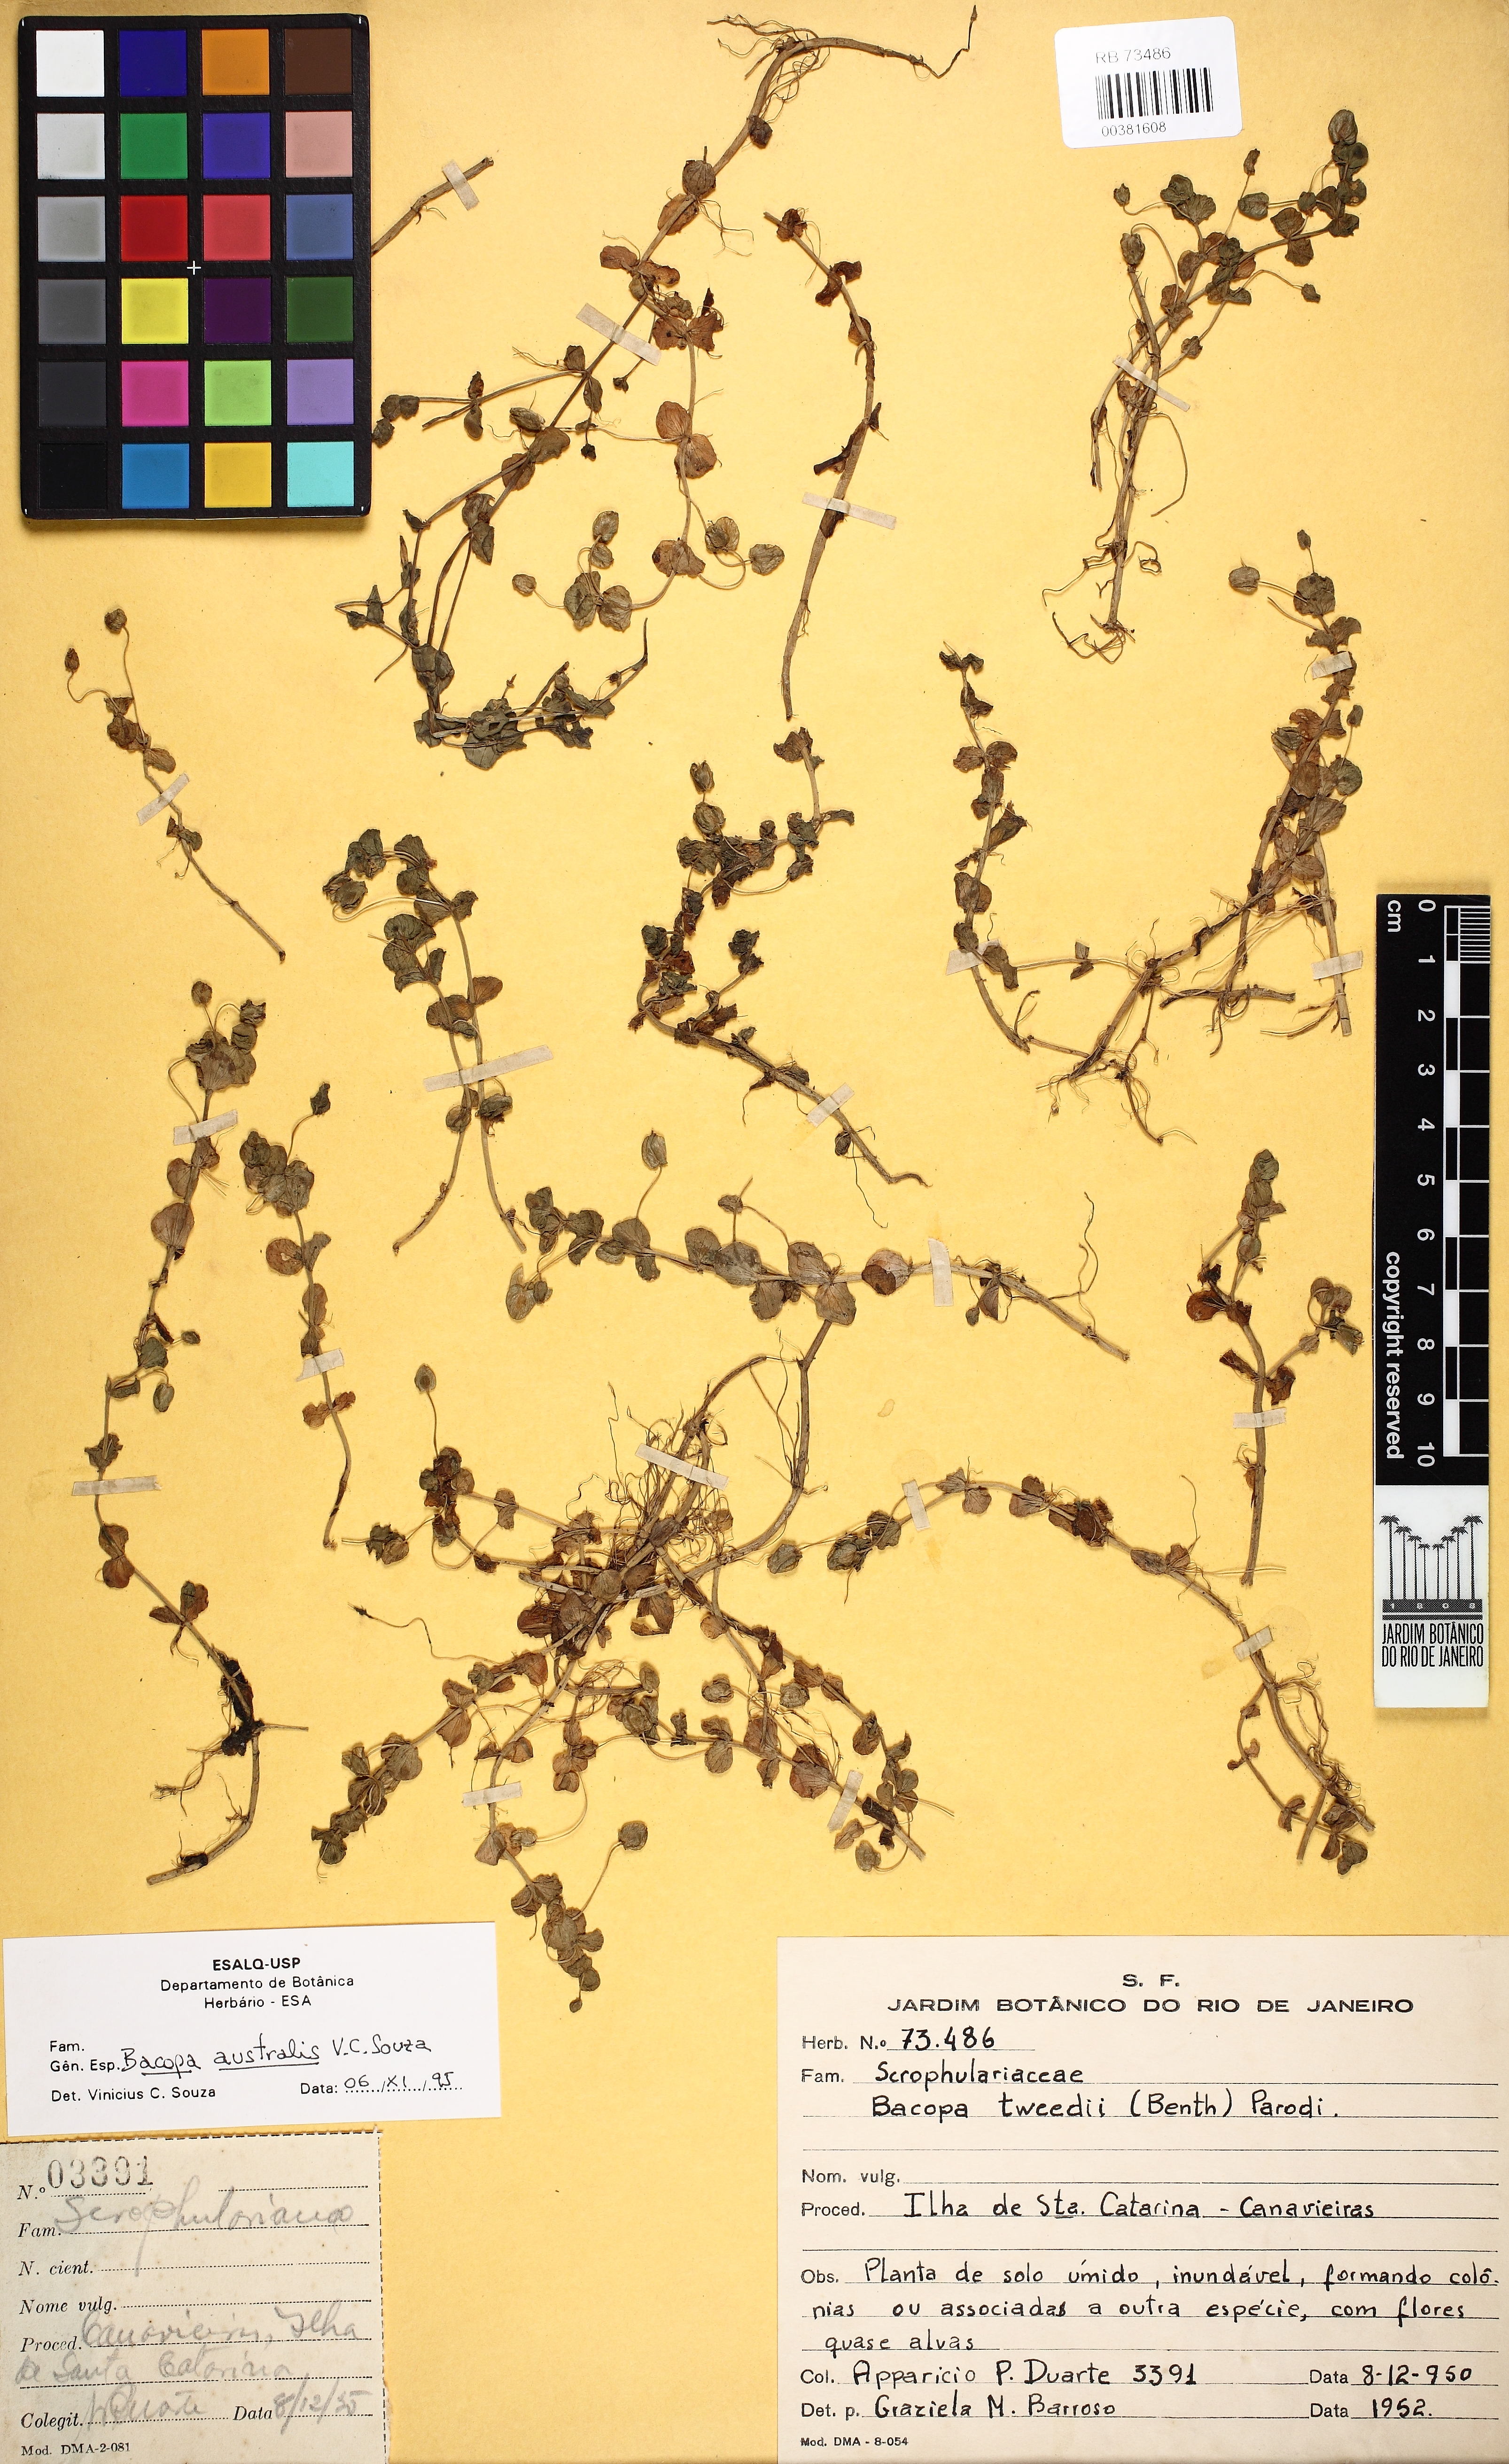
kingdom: Plantae
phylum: Tracheophyta
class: Magnoliopsida
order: Lamiales
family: Plantaginaceae
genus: Bacopa
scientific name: Bacopa australis
